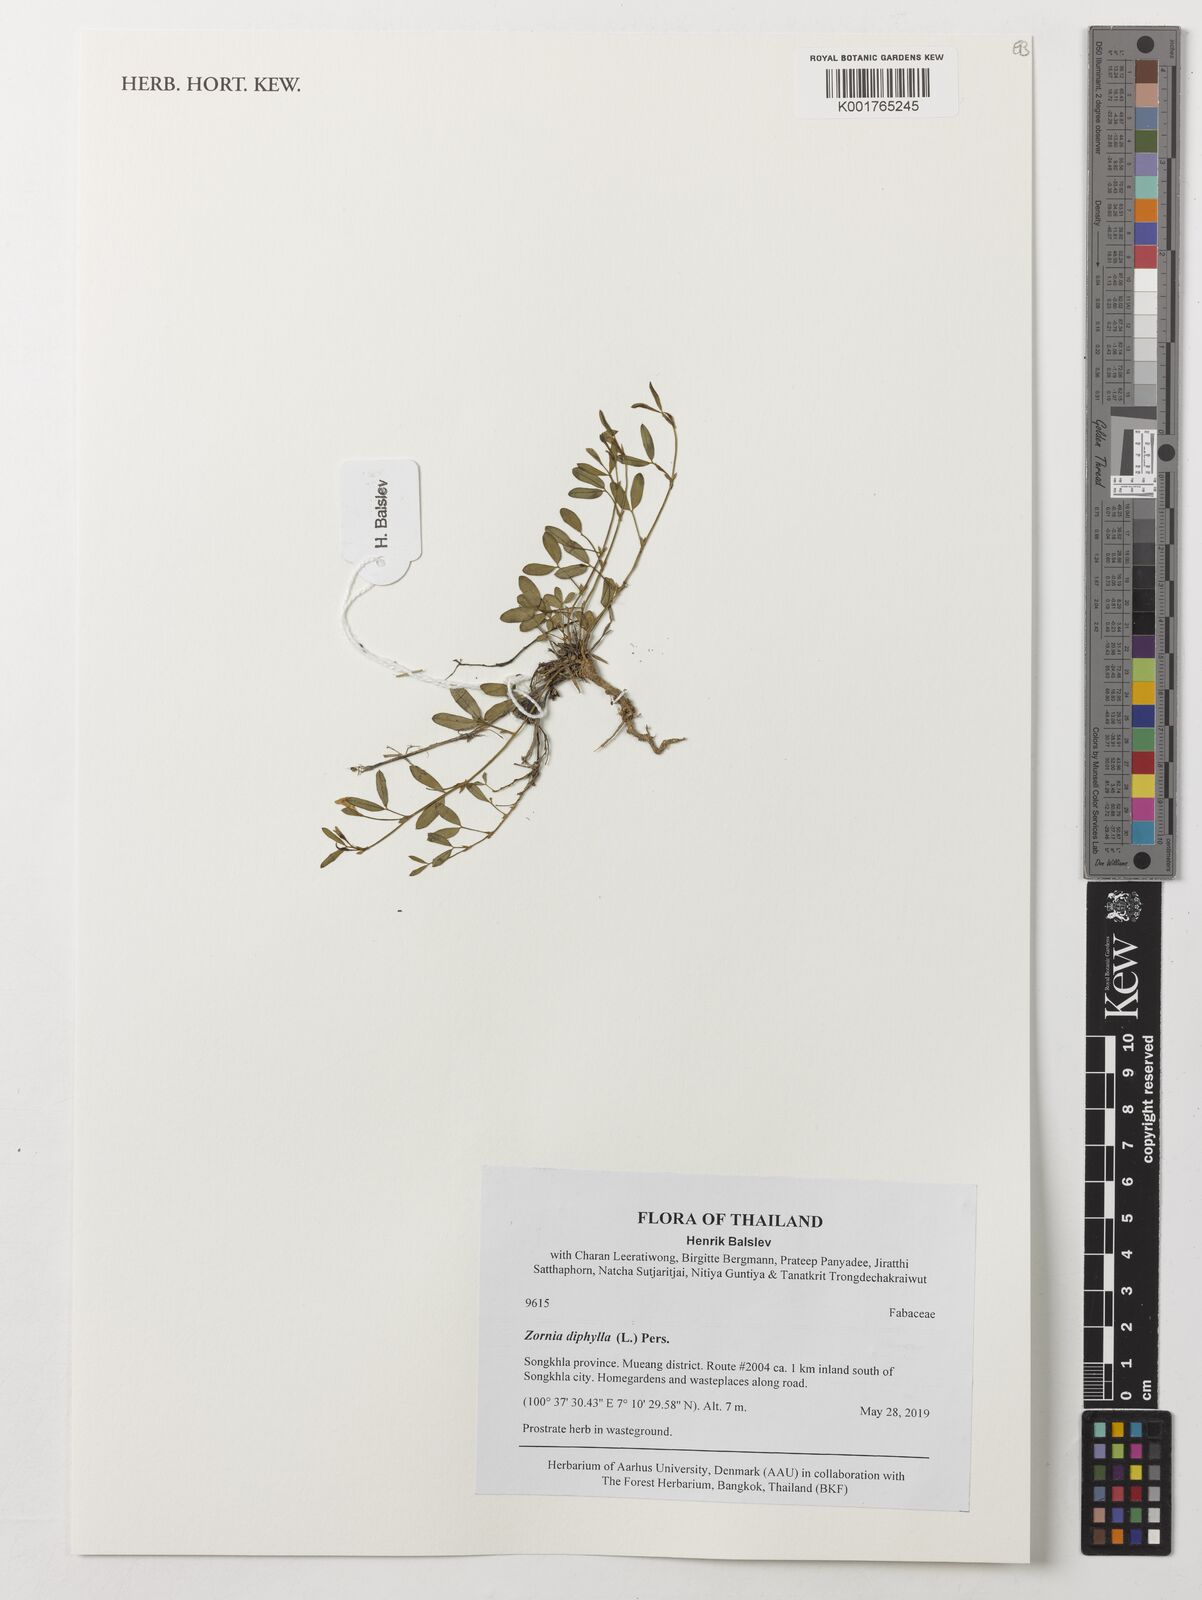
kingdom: Plantae
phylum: Tracheophyta
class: Magnoliopsida
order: Fabales
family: Fabaceae
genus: Zornia
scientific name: Zornia diphylla
